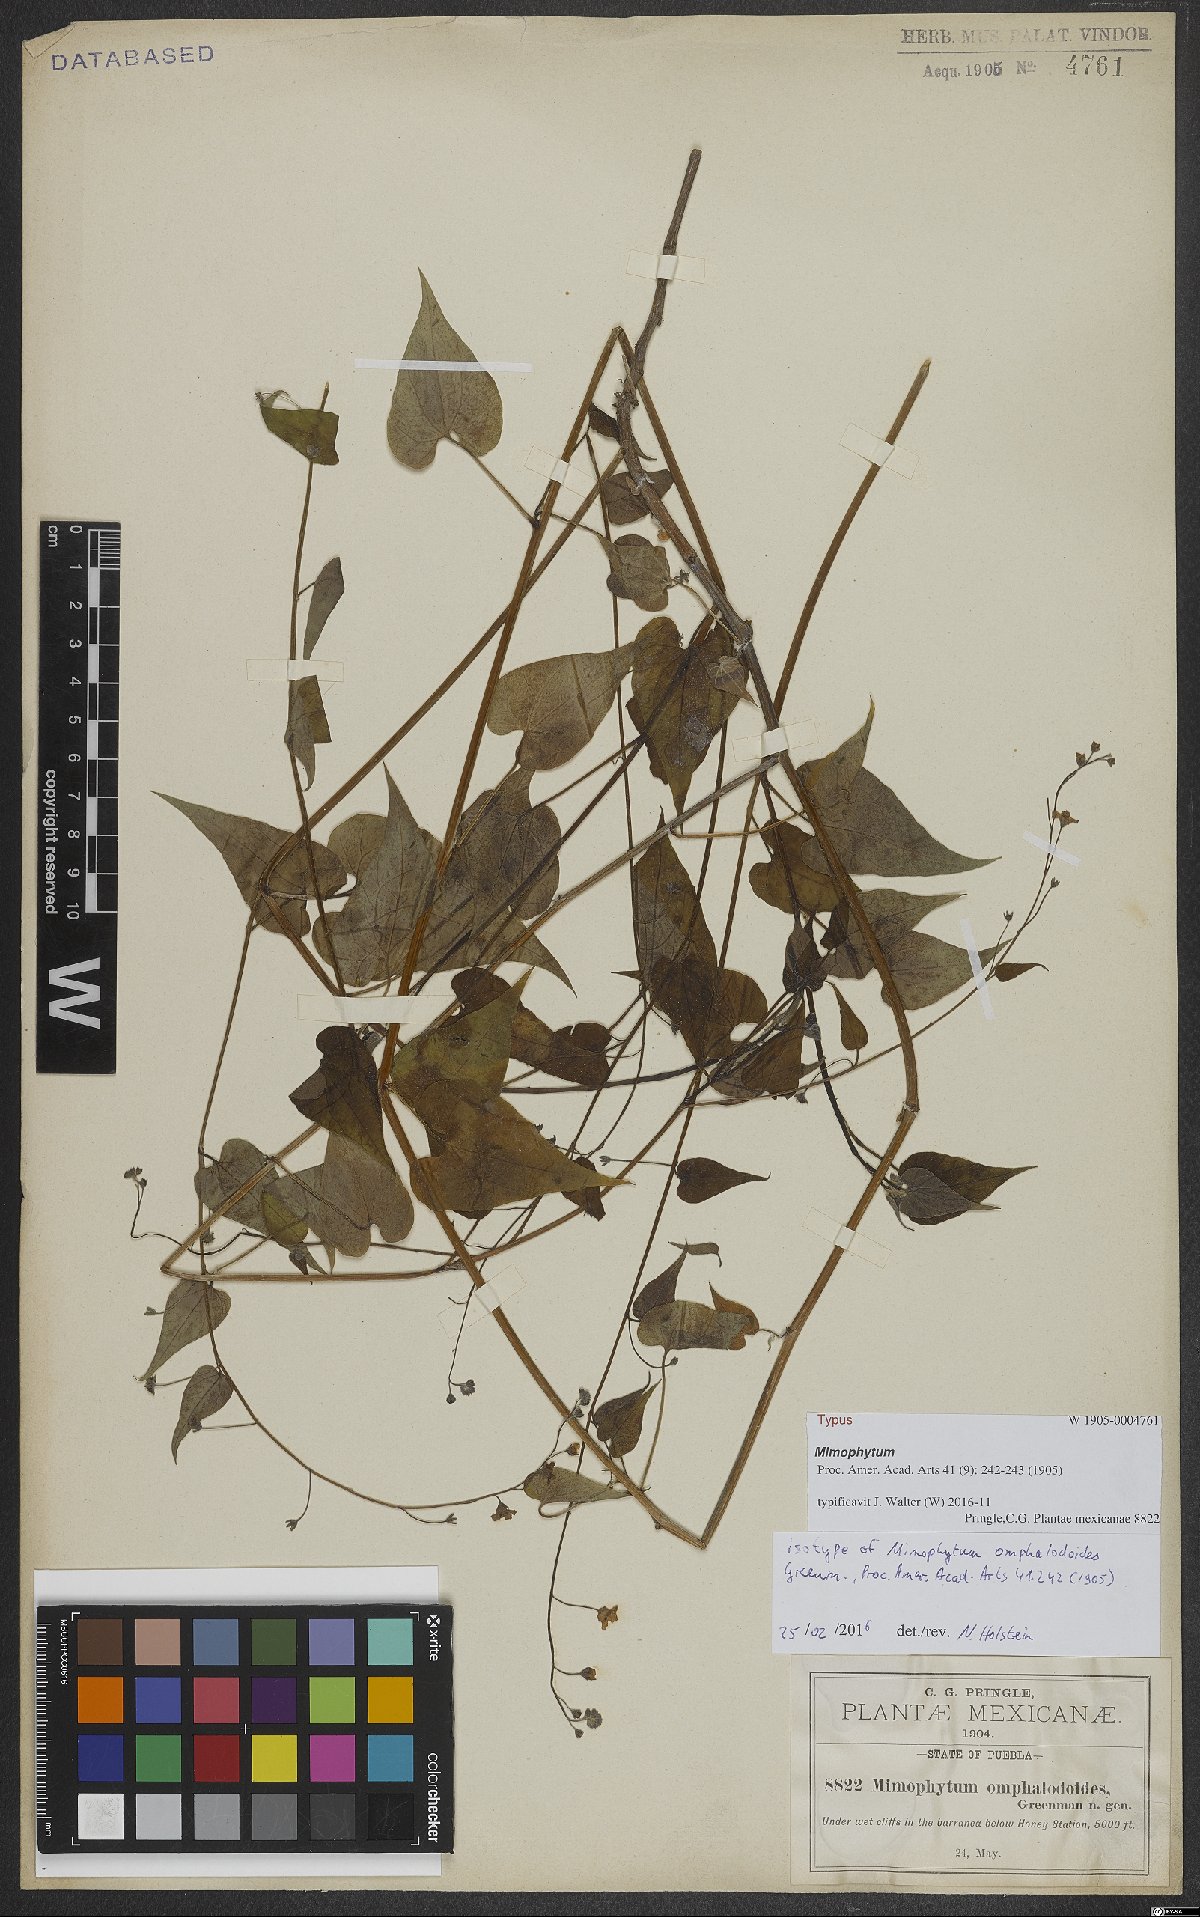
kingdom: Plantae
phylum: Tracheophyta
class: Magnoliopsida
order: Boraginales
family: Boraginaceae
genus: Mimophytum
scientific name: Mimophytum omphalodoides
